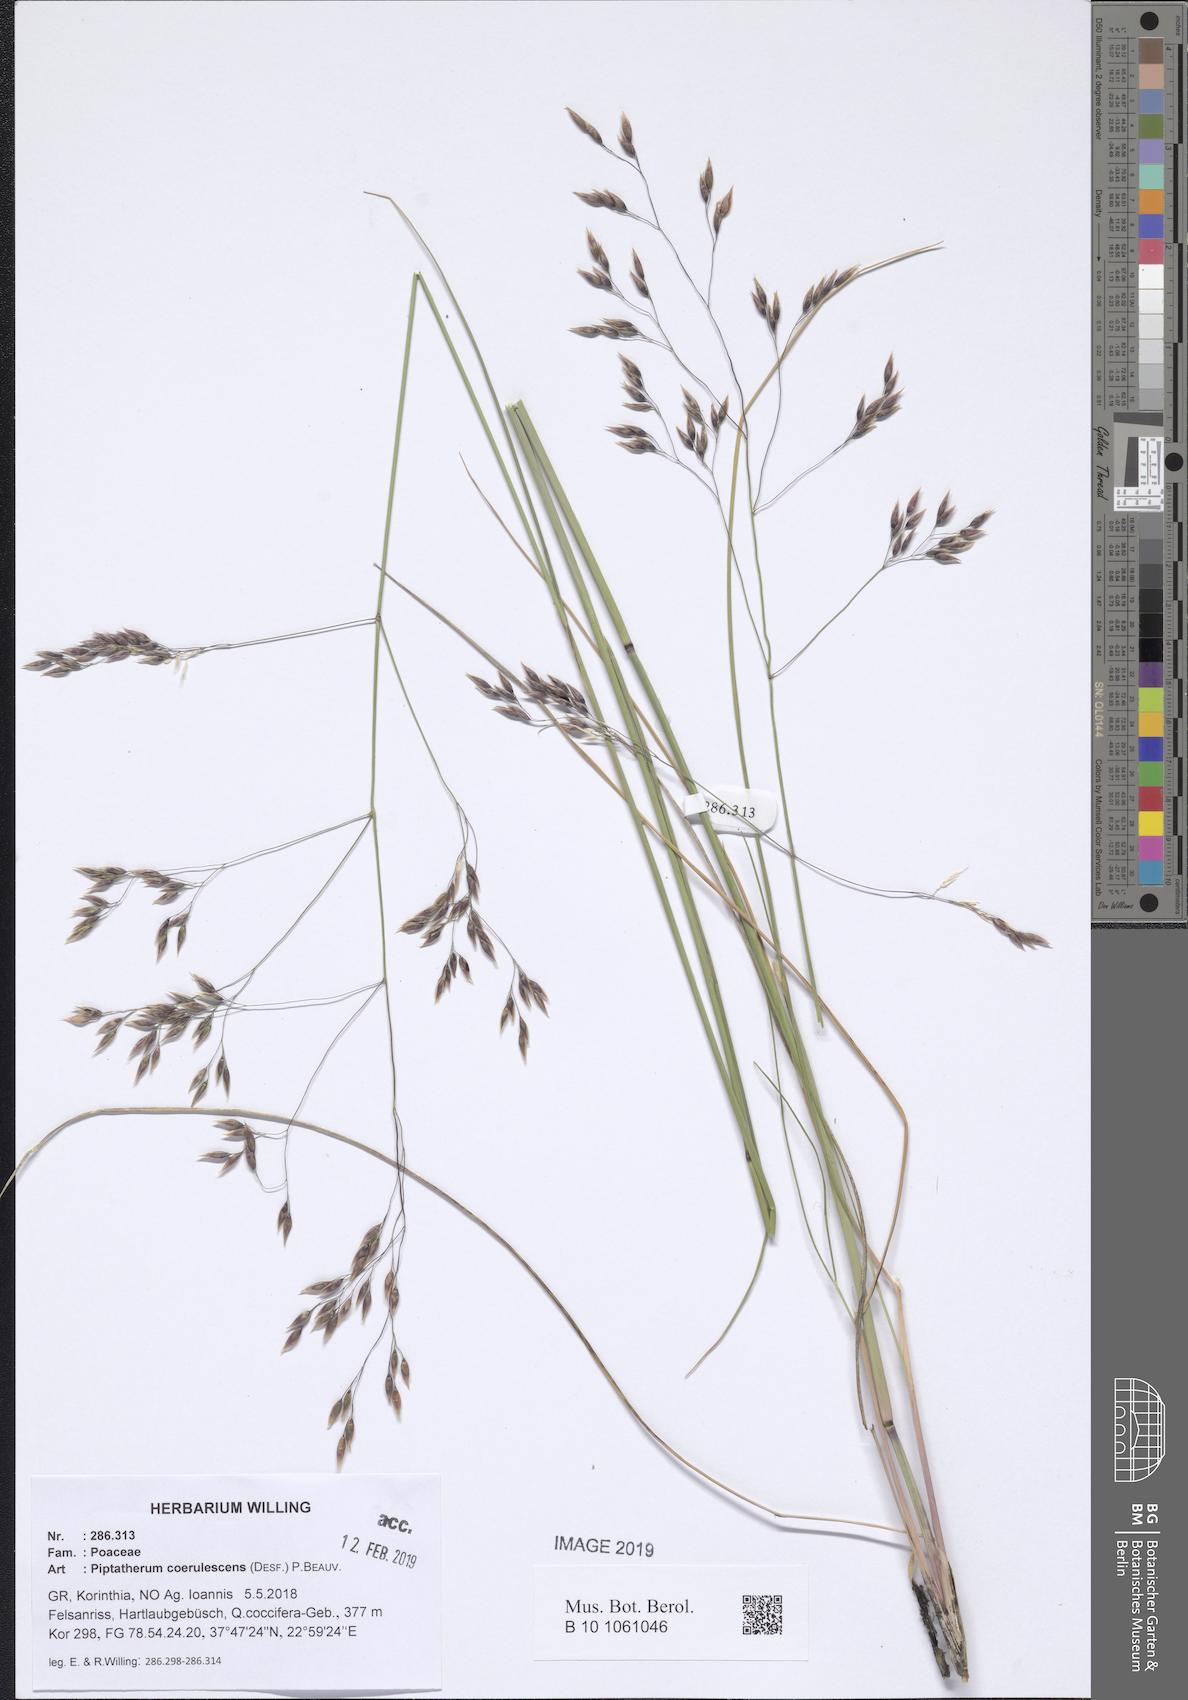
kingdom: Plantae
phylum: Tracheophyta
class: Liliopsida
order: Poales
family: Poaceae
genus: Piptatherum
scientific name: Piptatherum coerulescens
